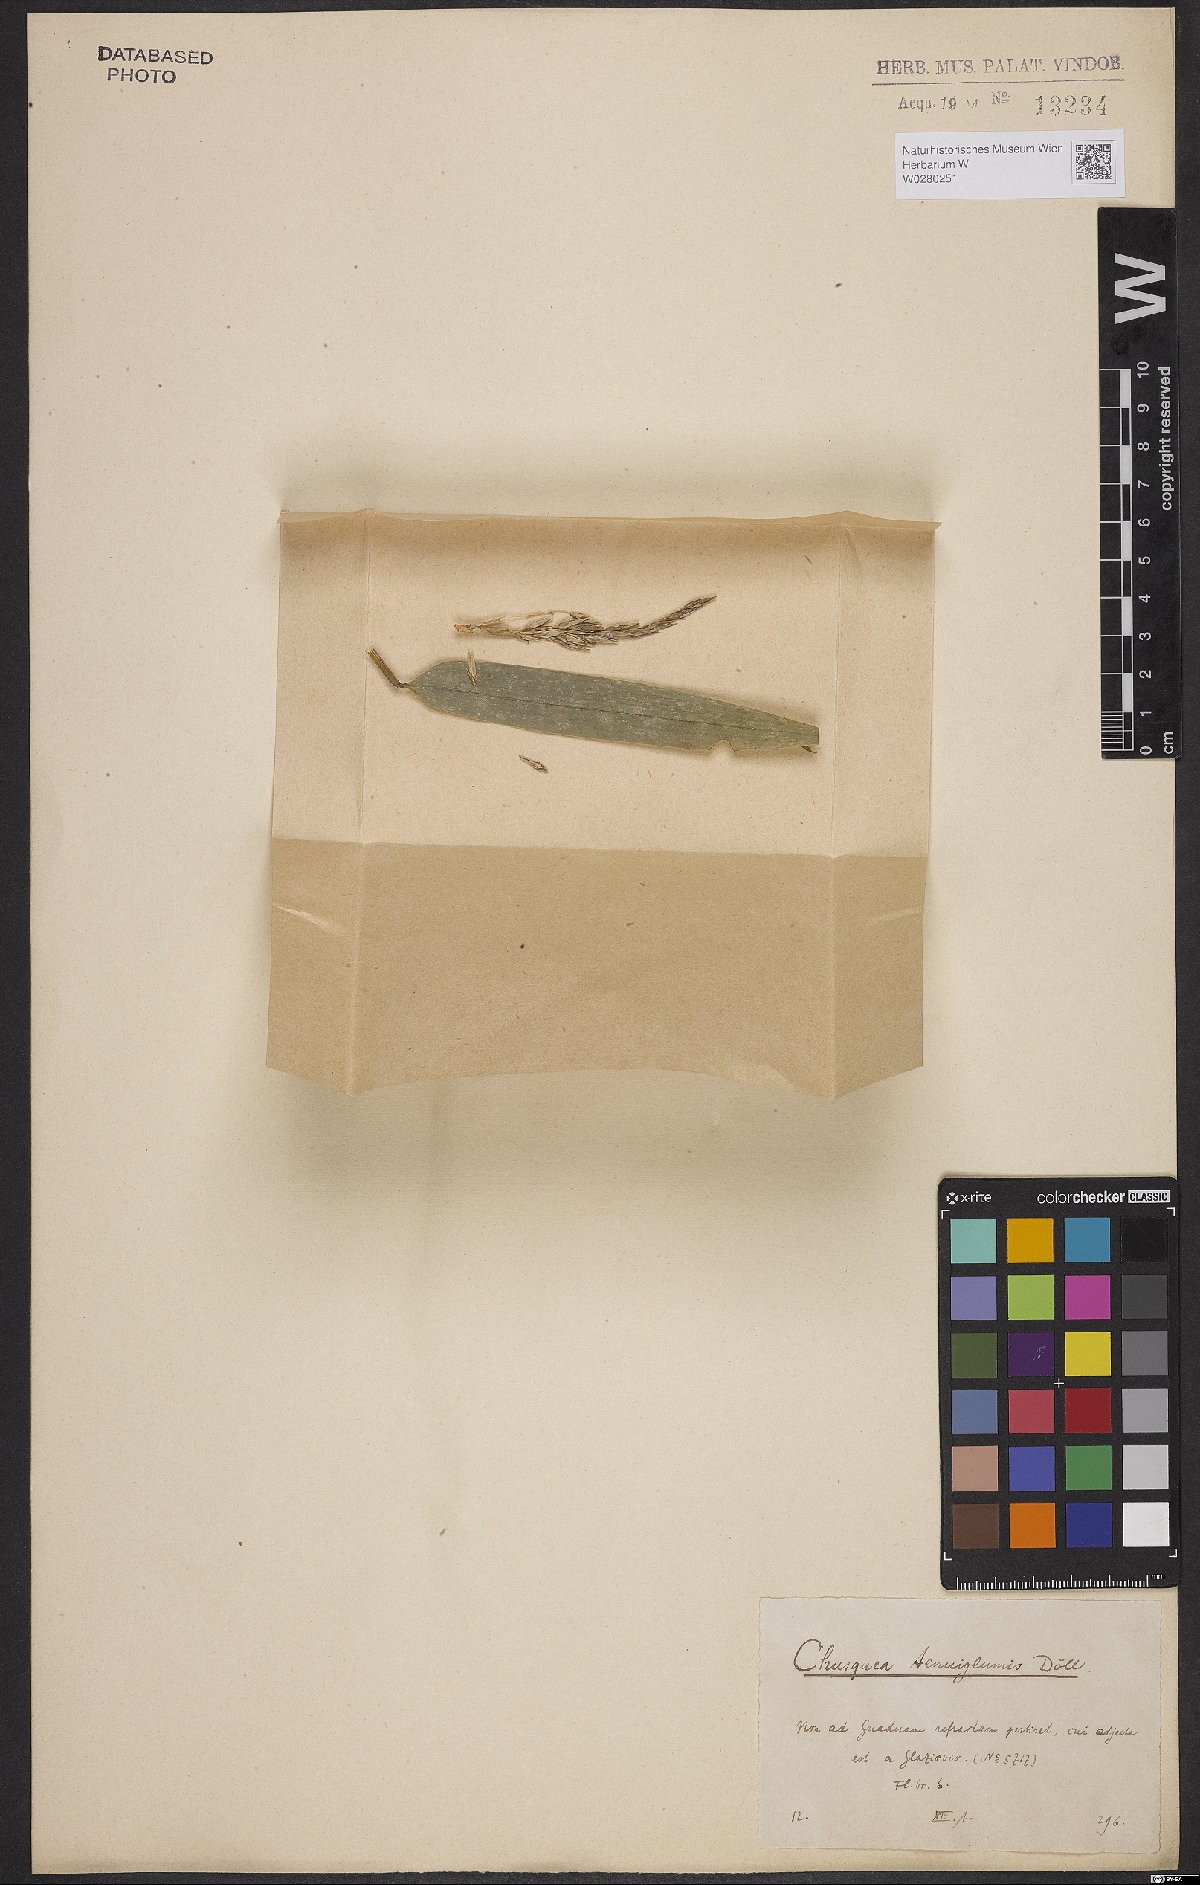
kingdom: Plantae
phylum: Tracheophyta
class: Liliopsida
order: Poales
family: Poaceae
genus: Chusquea
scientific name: Chusquea tenuiglumis
